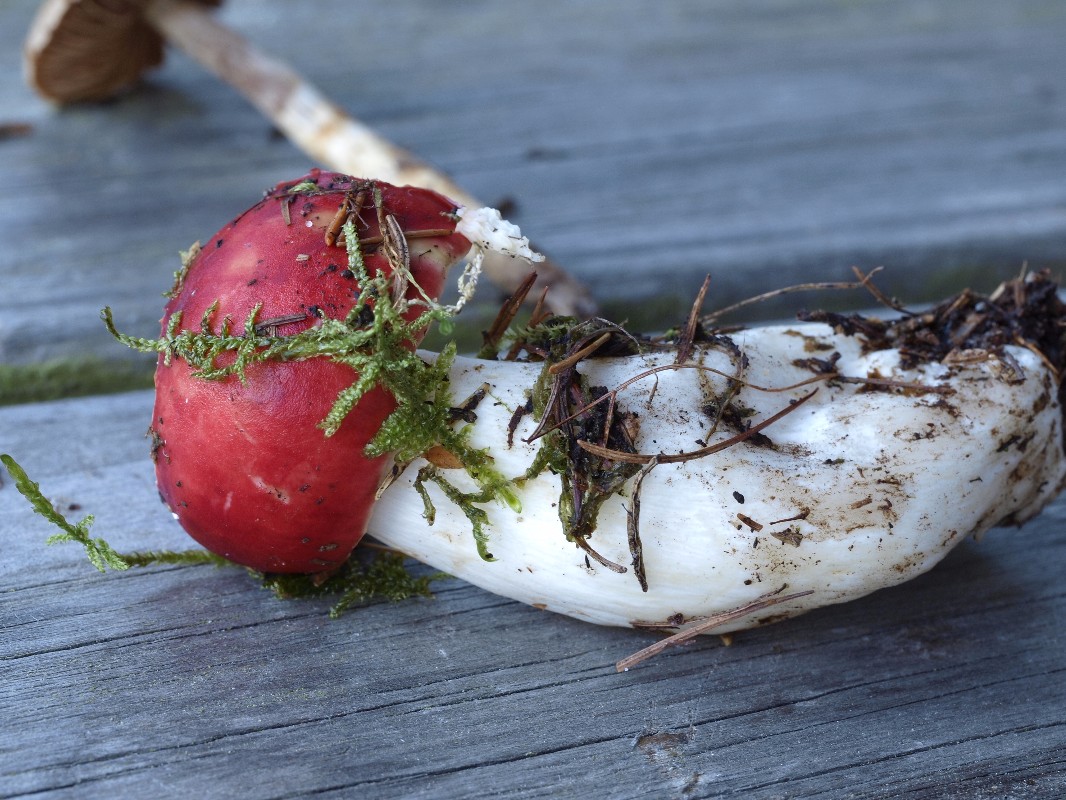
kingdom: Fungi
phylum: Basidiomycota
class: Agaricomycetes
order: Russulales
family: Russulaceae
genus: Russula
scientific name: Russula emetica
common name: stor gift-skørhat
